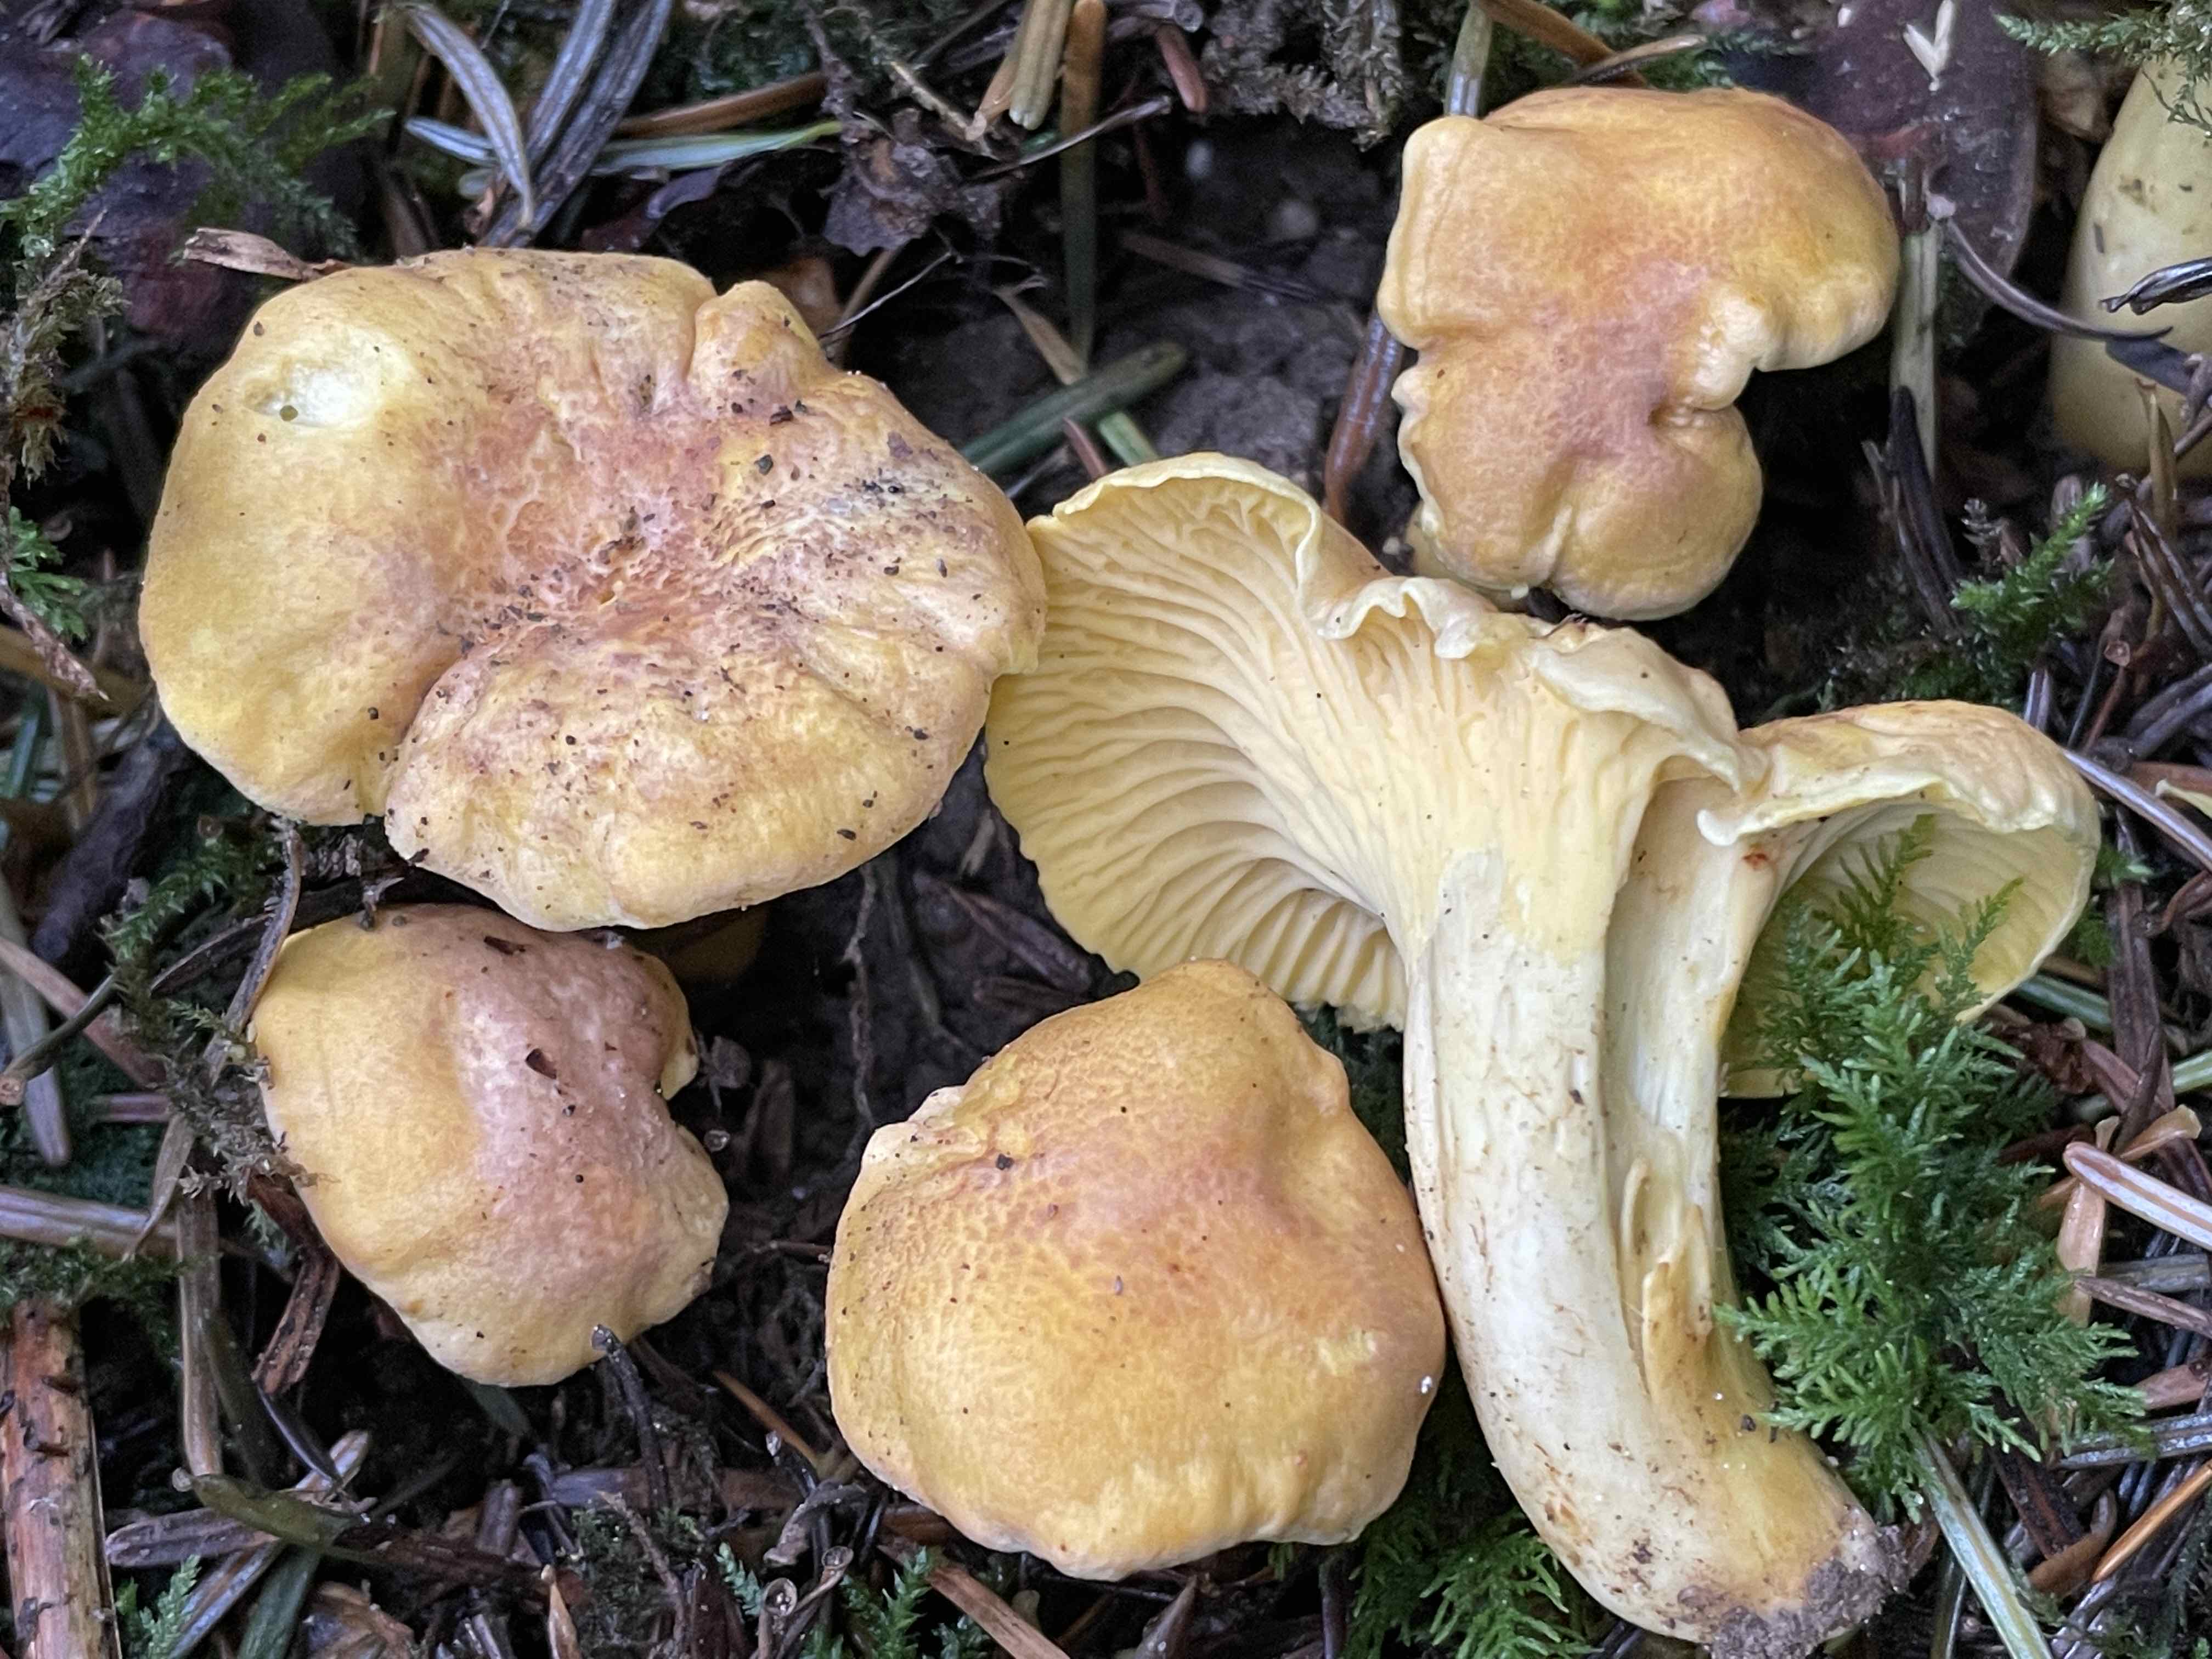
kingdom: Fungi
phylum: Basidiomycota
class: Agaricomycetes
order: Cantharellales
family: Hydnaceae
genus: Cantharellus
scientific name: Cantharellus amethysteus
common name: ametyst-kantarel
